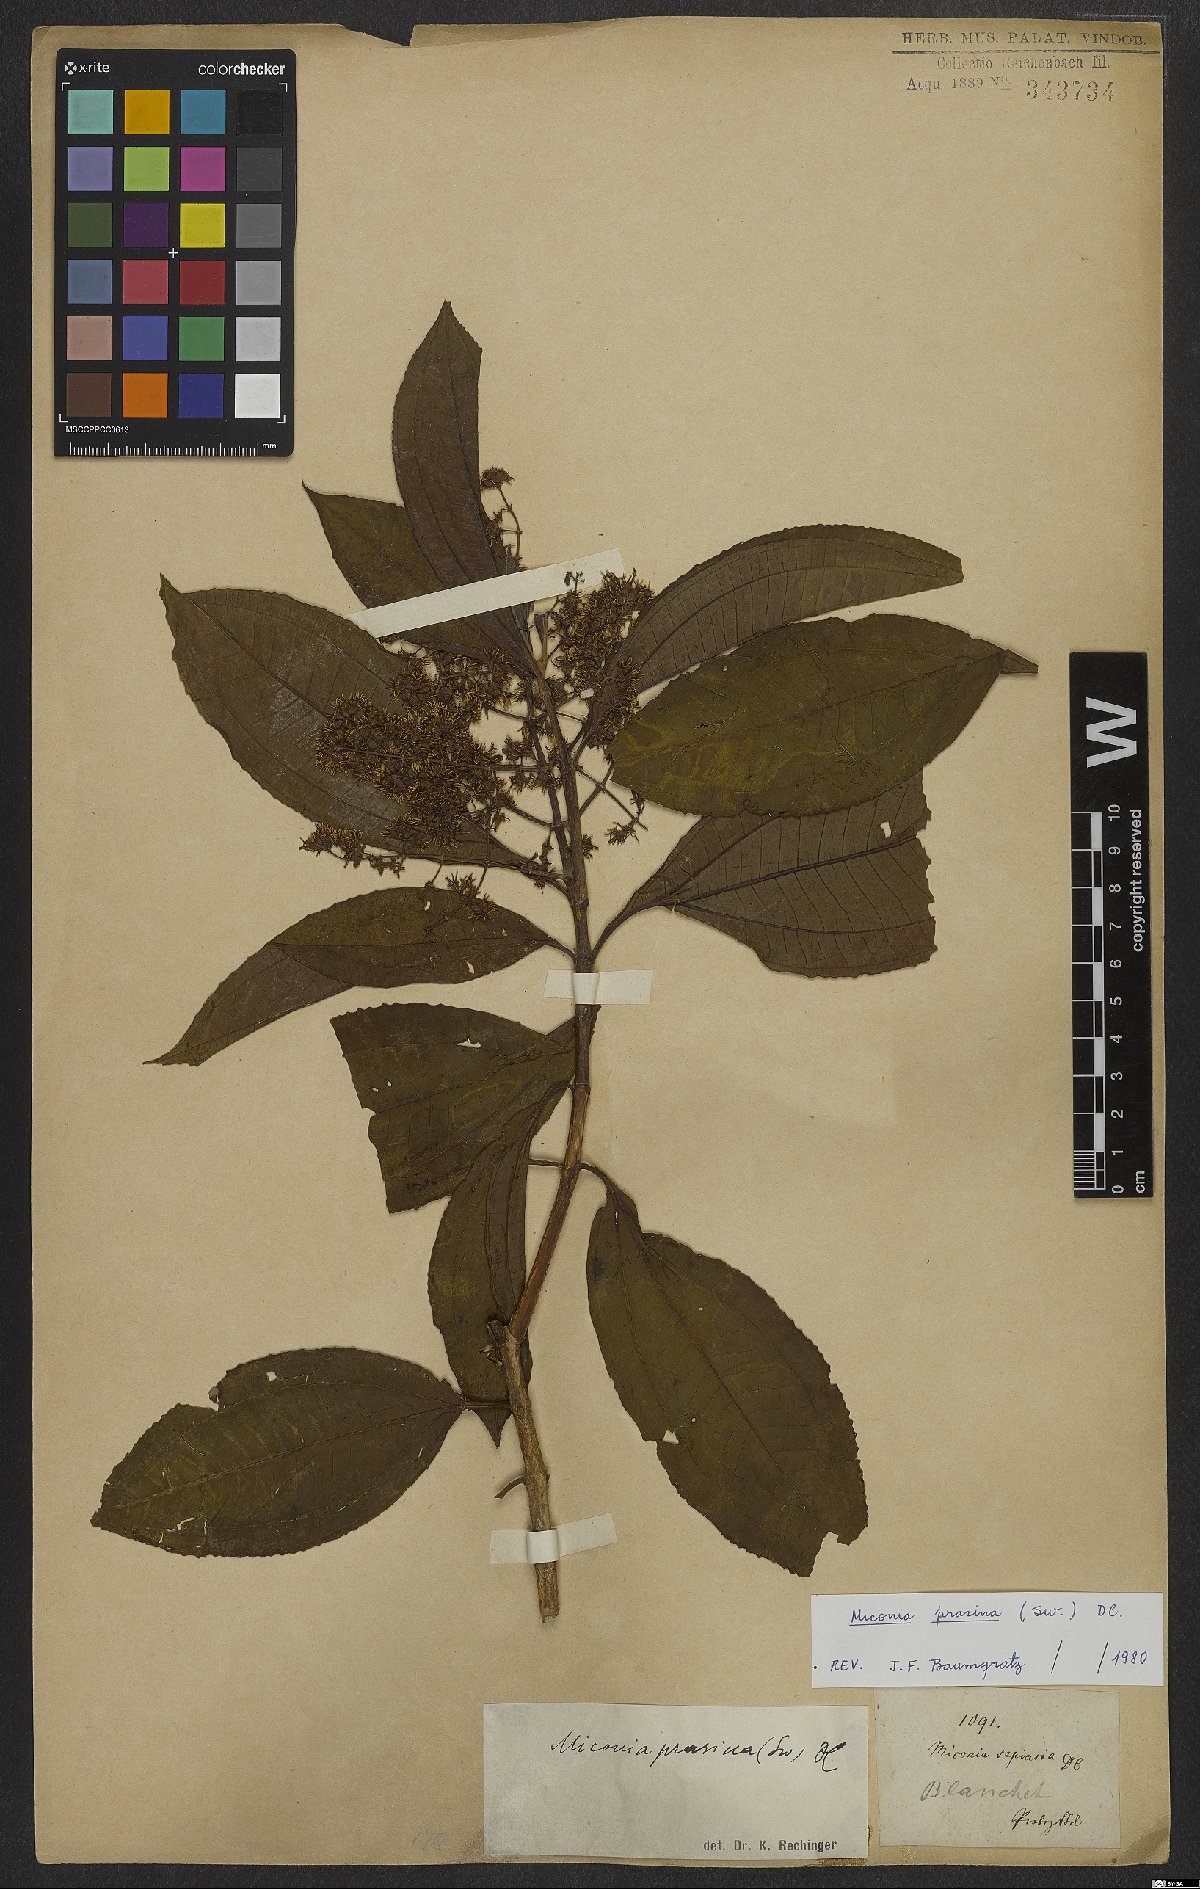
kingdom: Plantae
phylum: Tracheophyta
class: Magnoliopsida
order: Myrtales
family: Melastomataceae
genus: Miconia
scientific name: Miconia prasina
